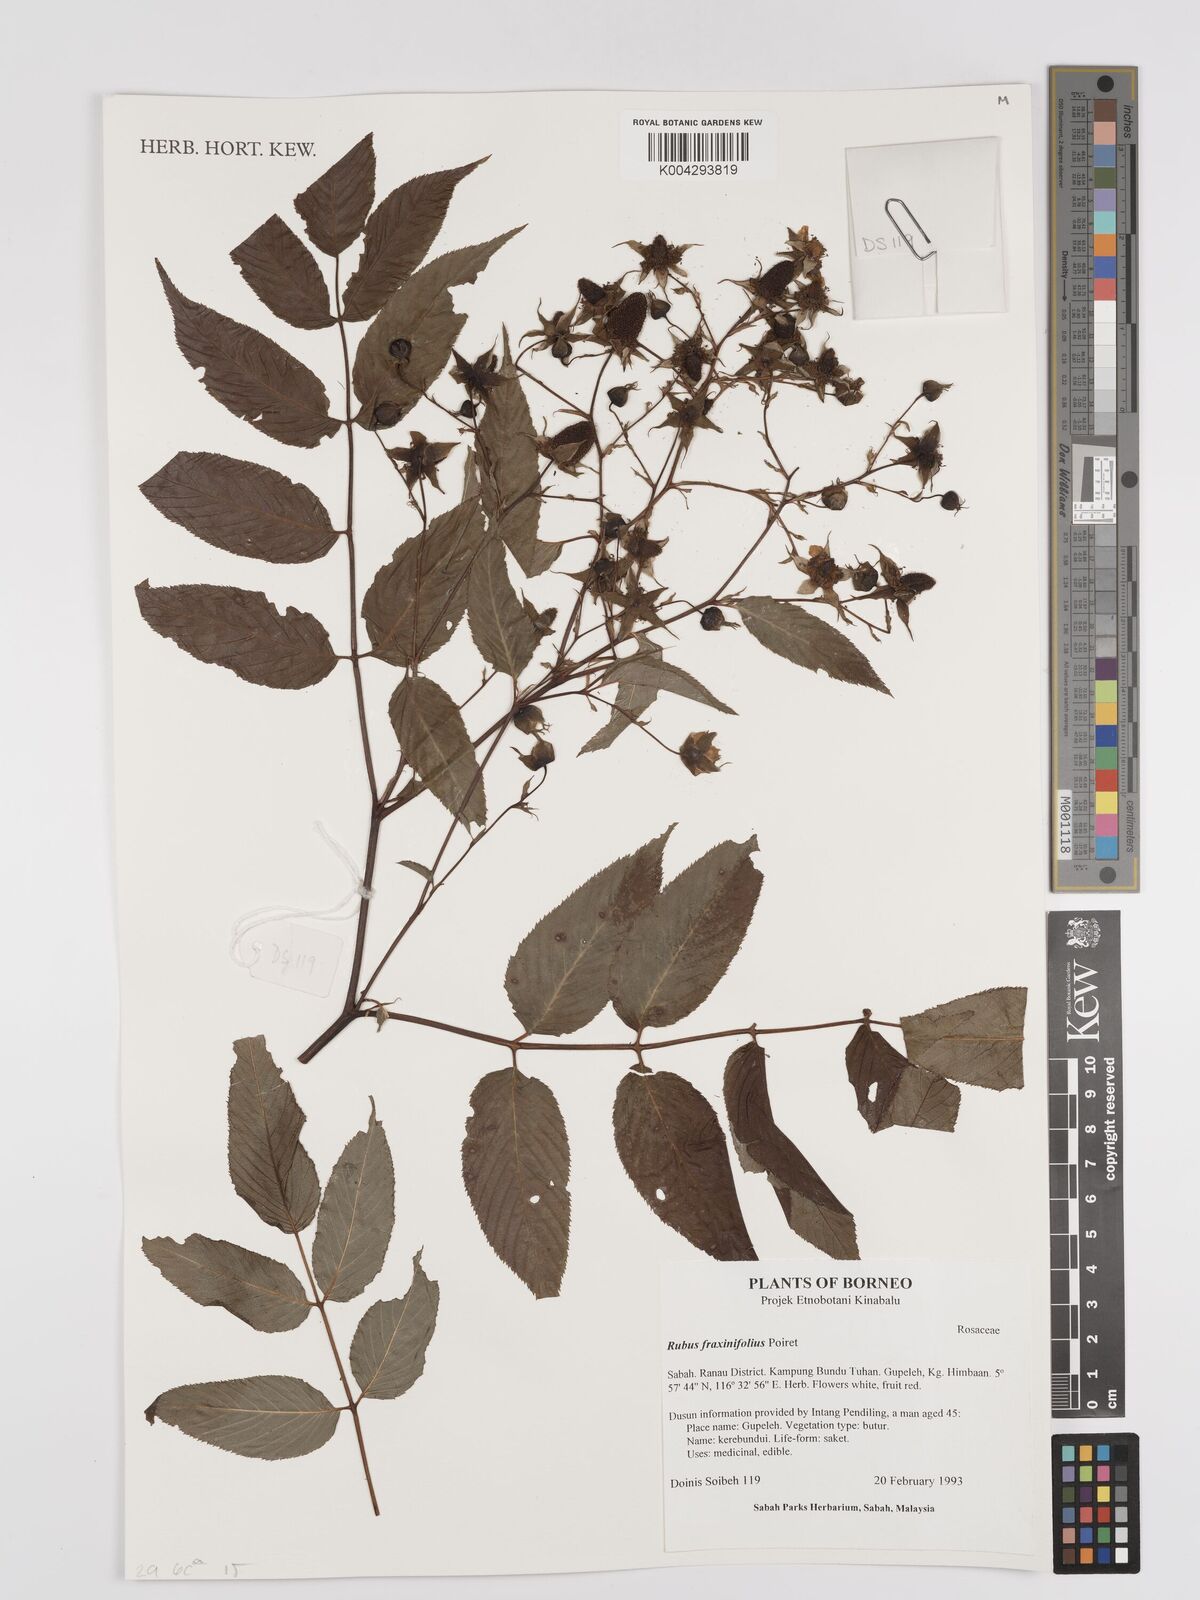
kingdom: Plantae
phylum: Tracheophyta
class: Magnoliopsida
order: Rosales
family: Rosaceae
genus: Rubus
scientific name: Rubus fraxinifolius
